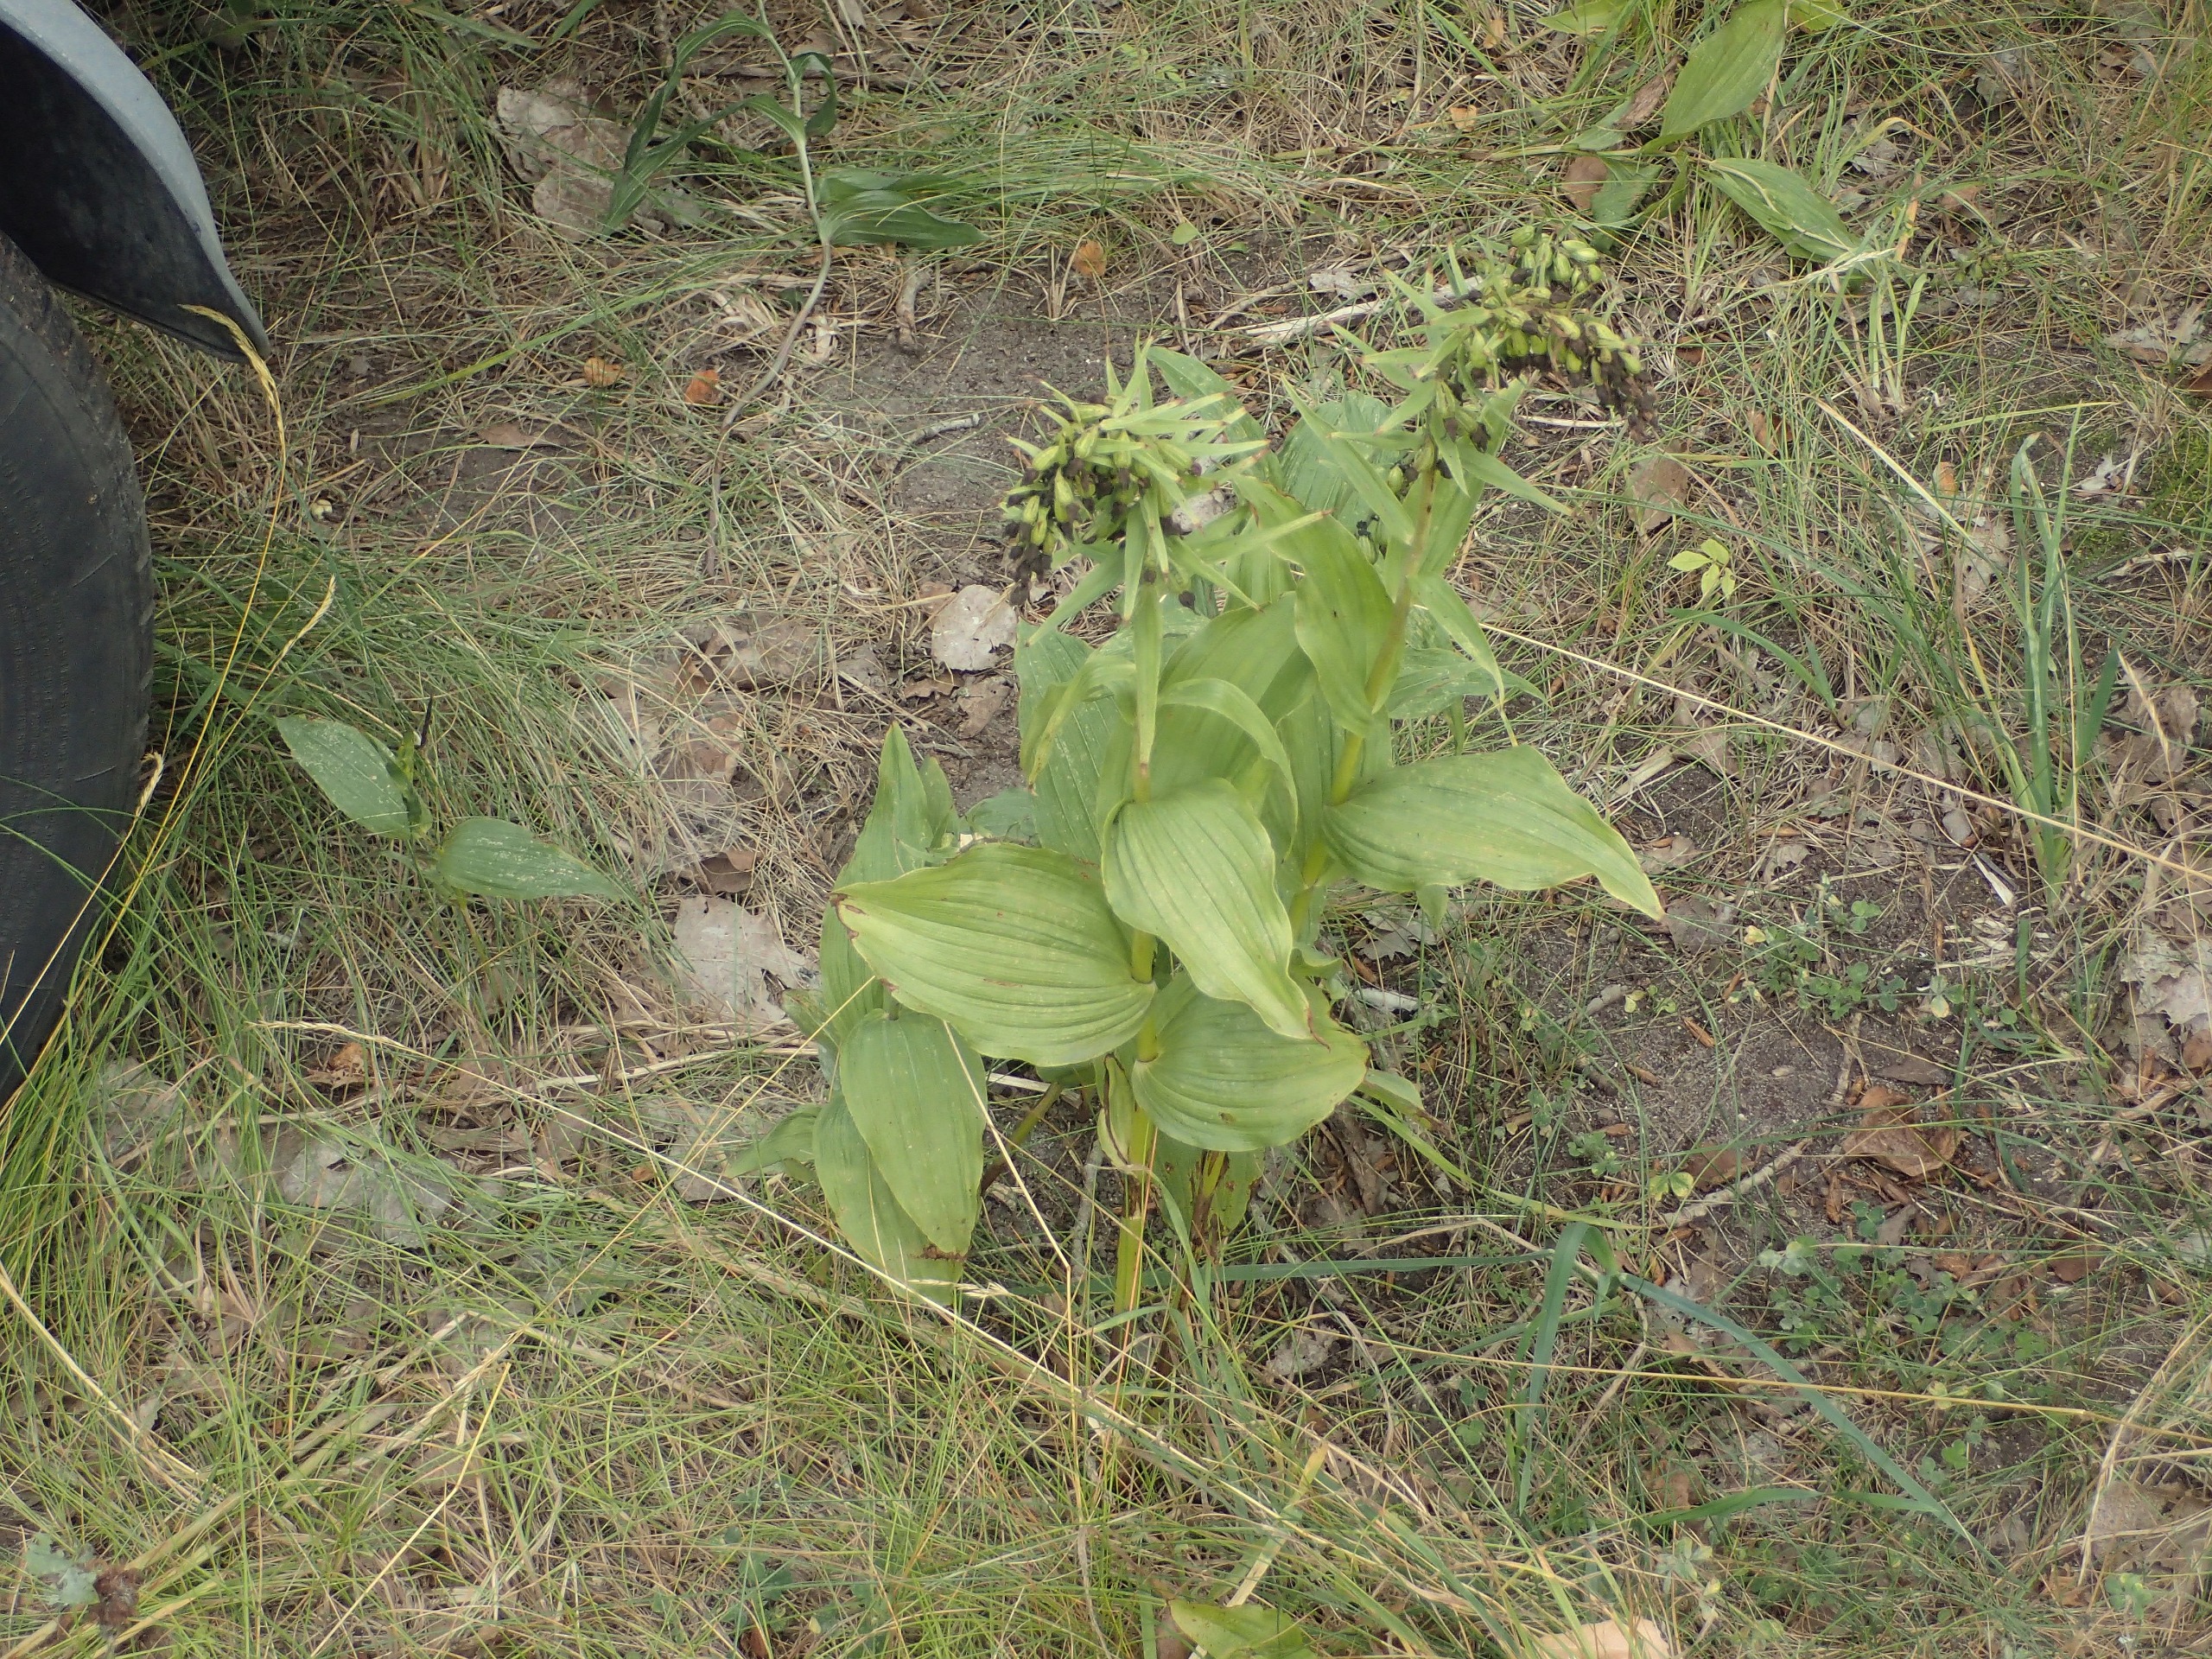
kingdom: Plantae
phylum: Tracheophyta
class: Liliopsida
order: Asparagales
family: Orchidaceae
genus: Epipactis
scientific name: Epipactis helleborine
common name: Skov-hullæbe
